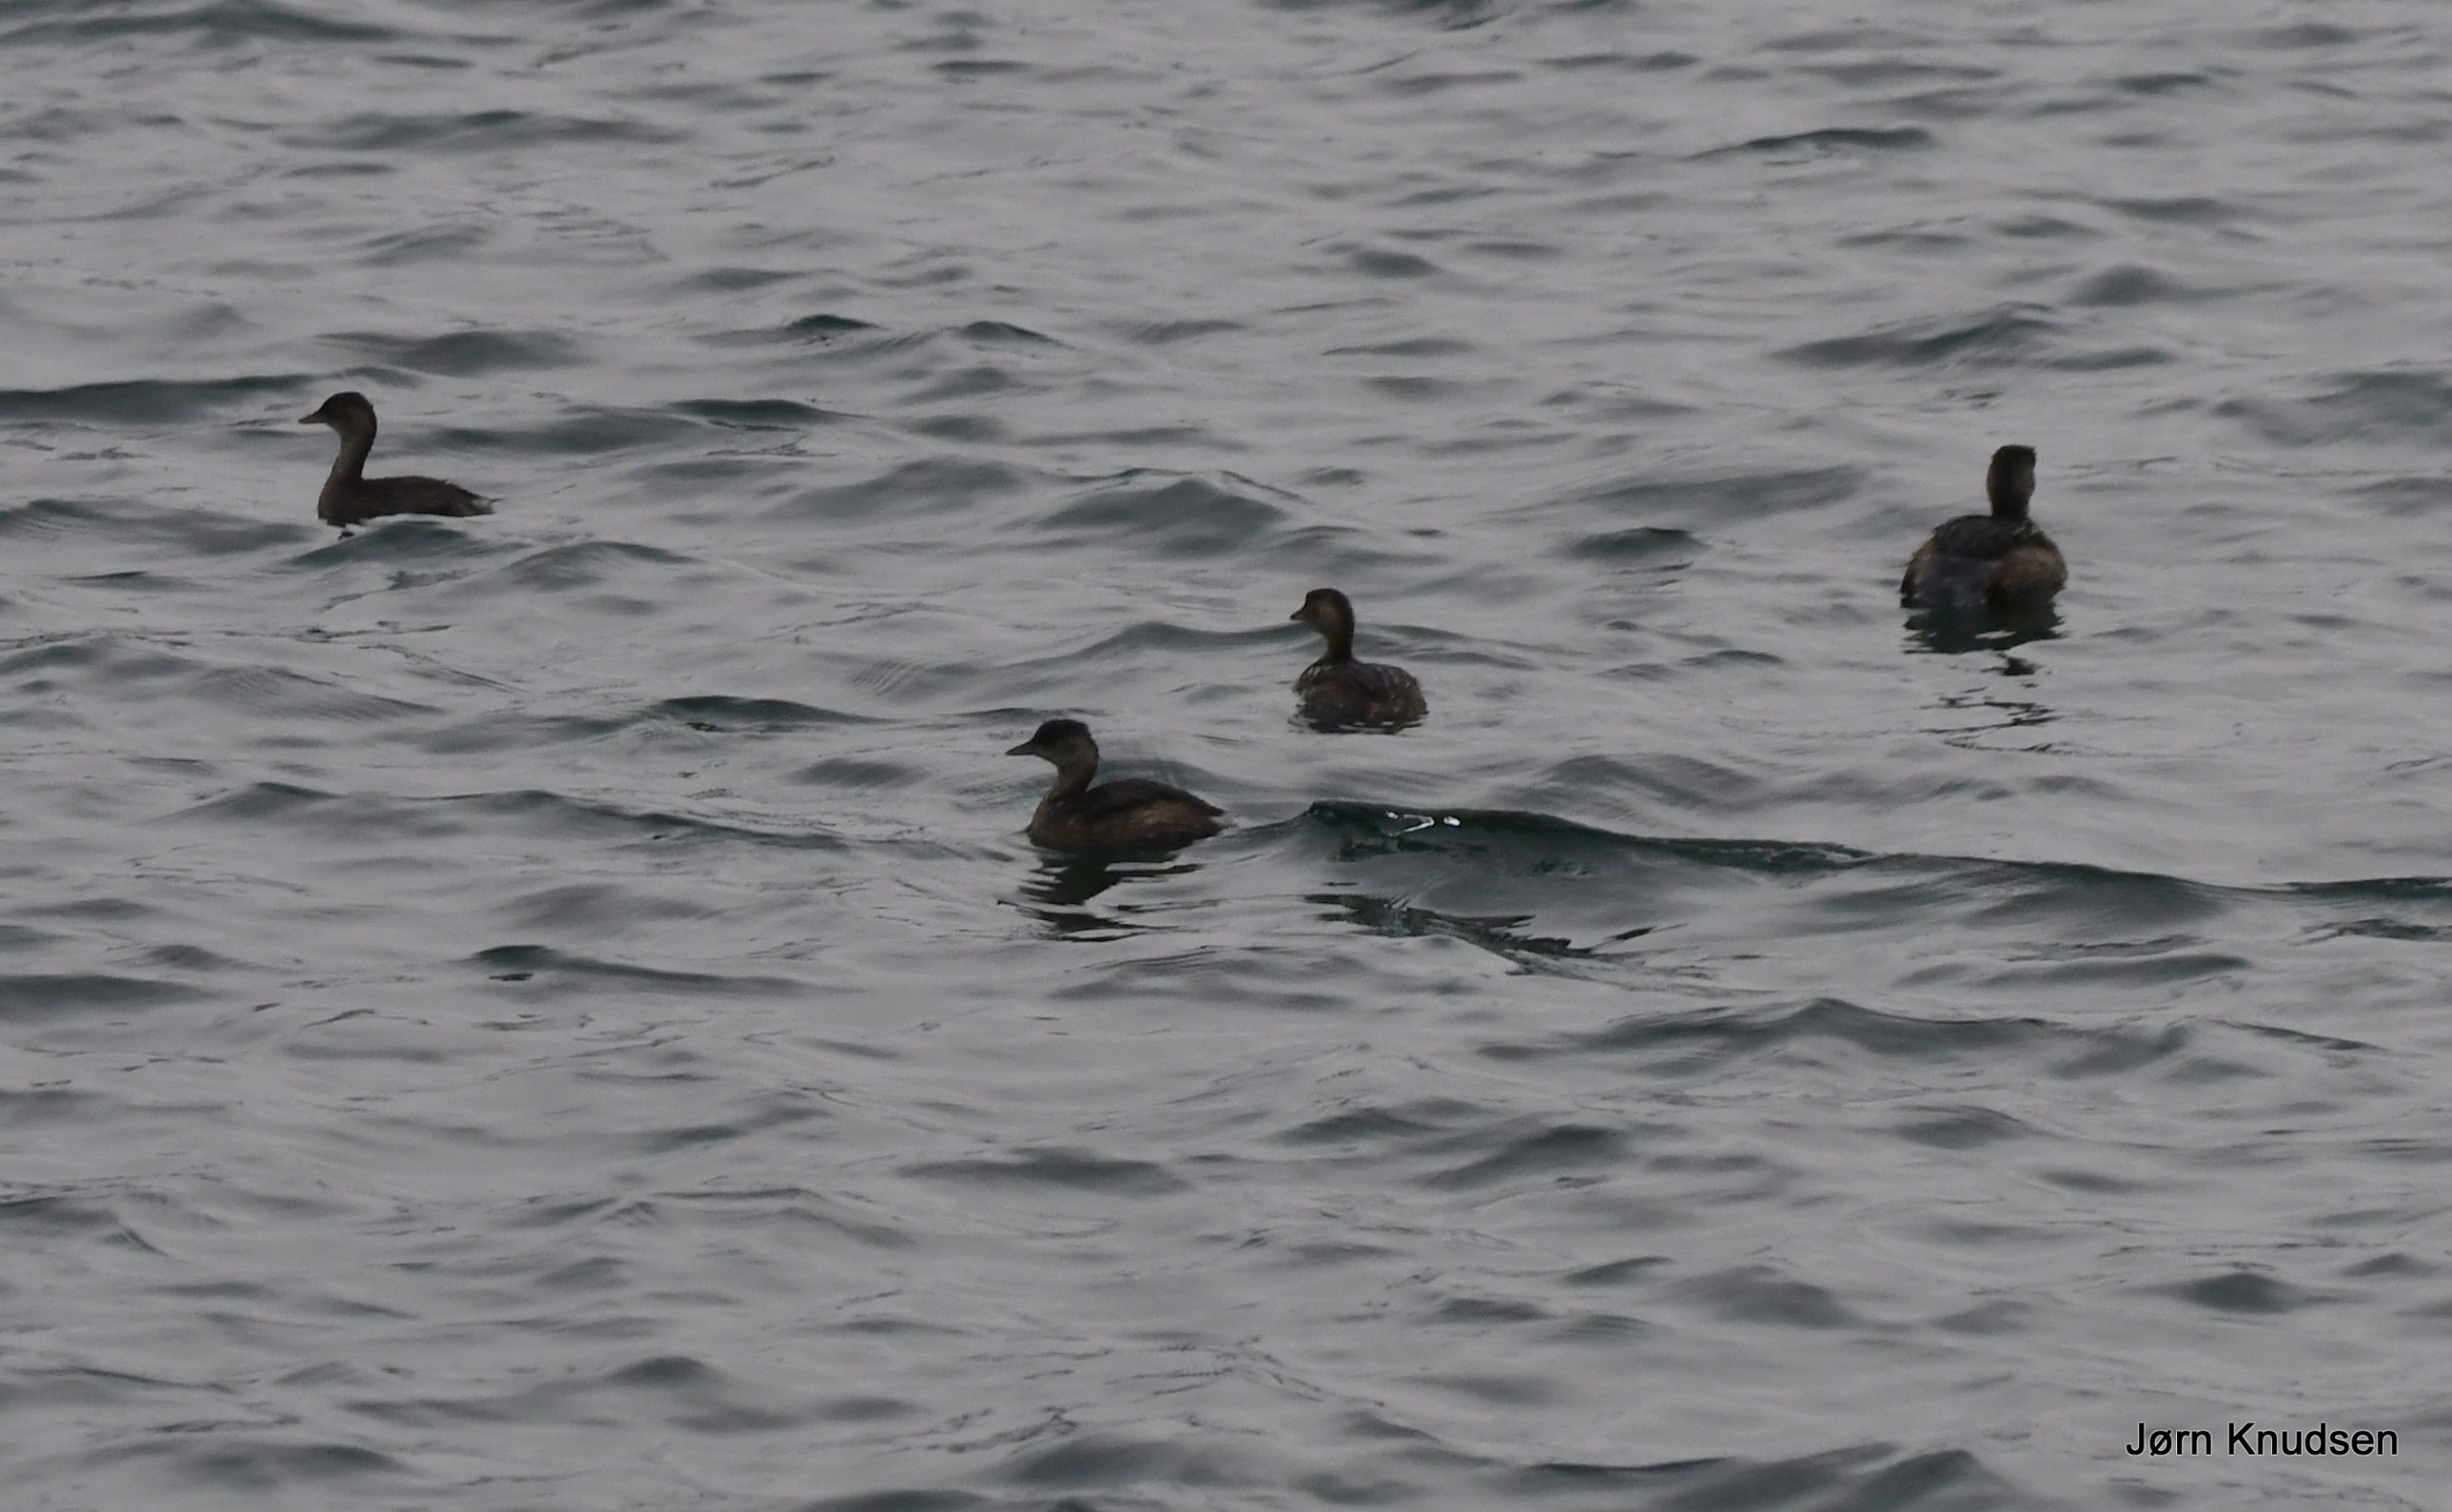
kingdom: Animalia
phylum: Chordata
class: Aves
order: Podicipediformes
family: Podicipedidae
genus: Tachybaptus
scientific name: Tachybaptus ruficollis
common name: Lille lappedykker
